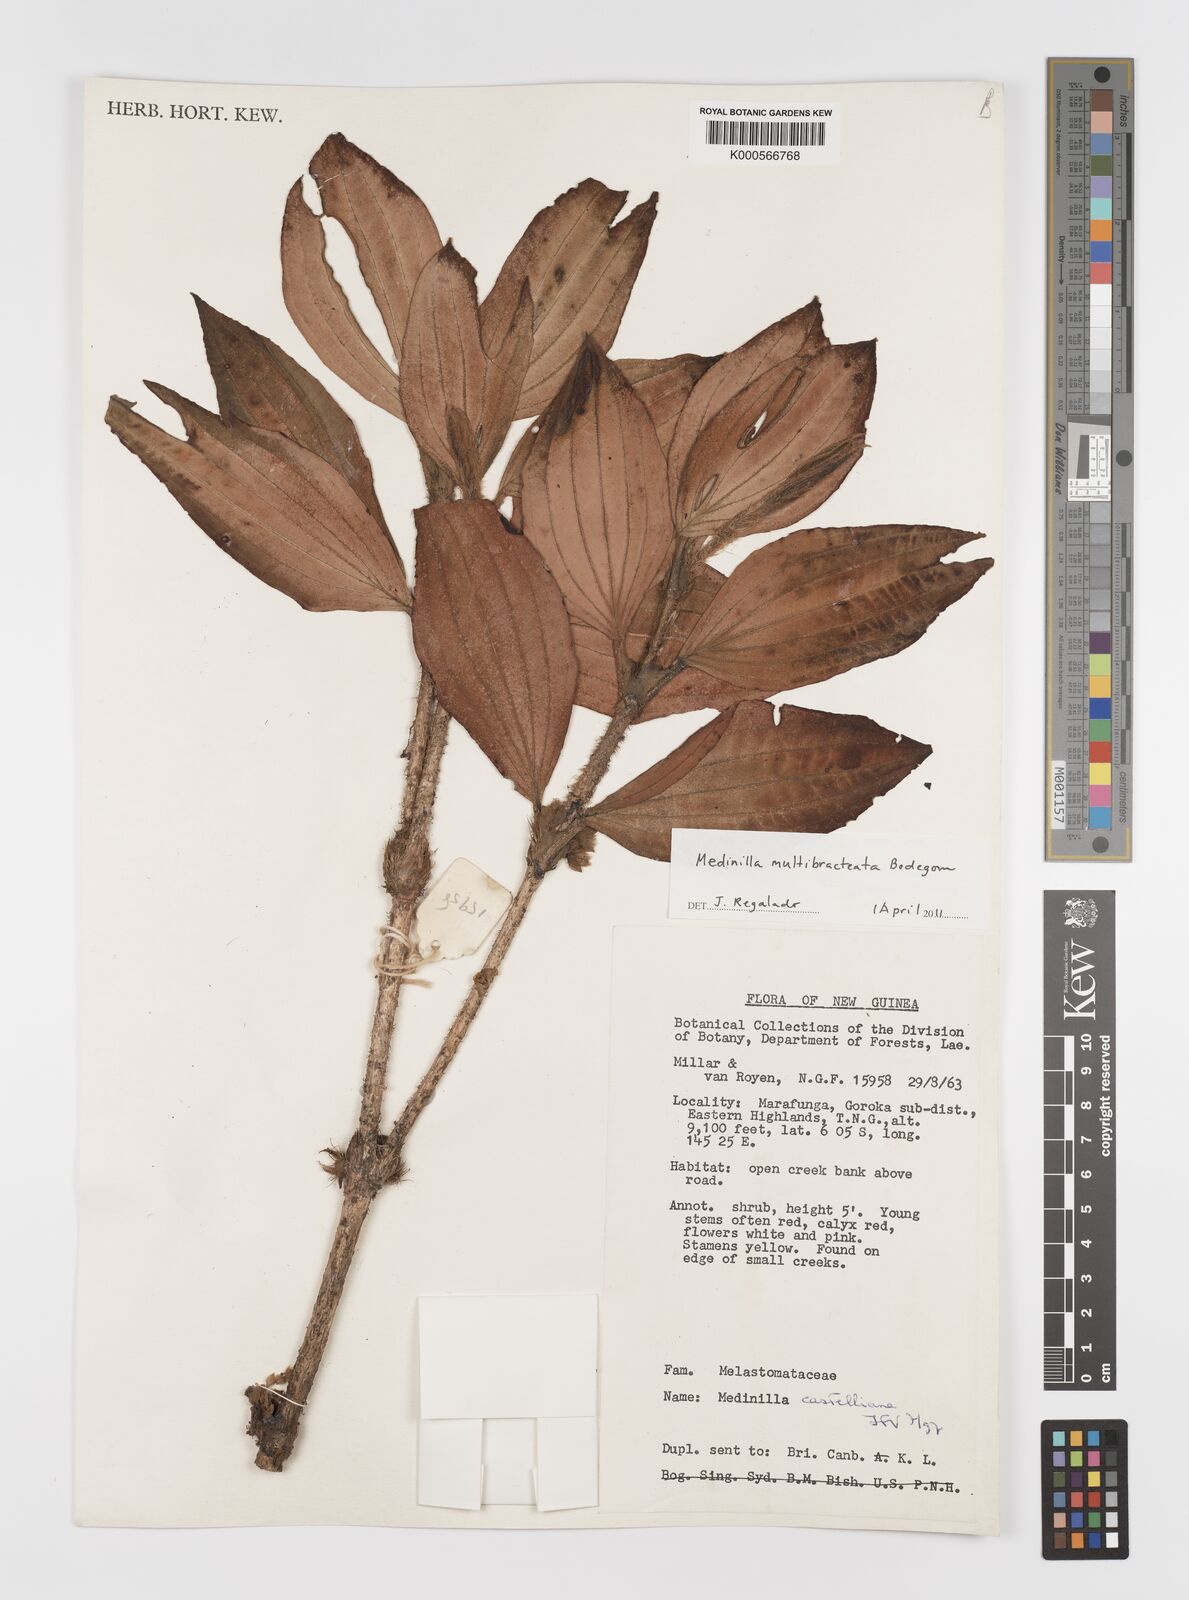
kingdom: Plantae
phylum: Tracheophyta
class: Magnoliopsida
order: Myrtales
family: Melastomataceae
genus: Medinilla
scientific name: Medinilla multibracteata
